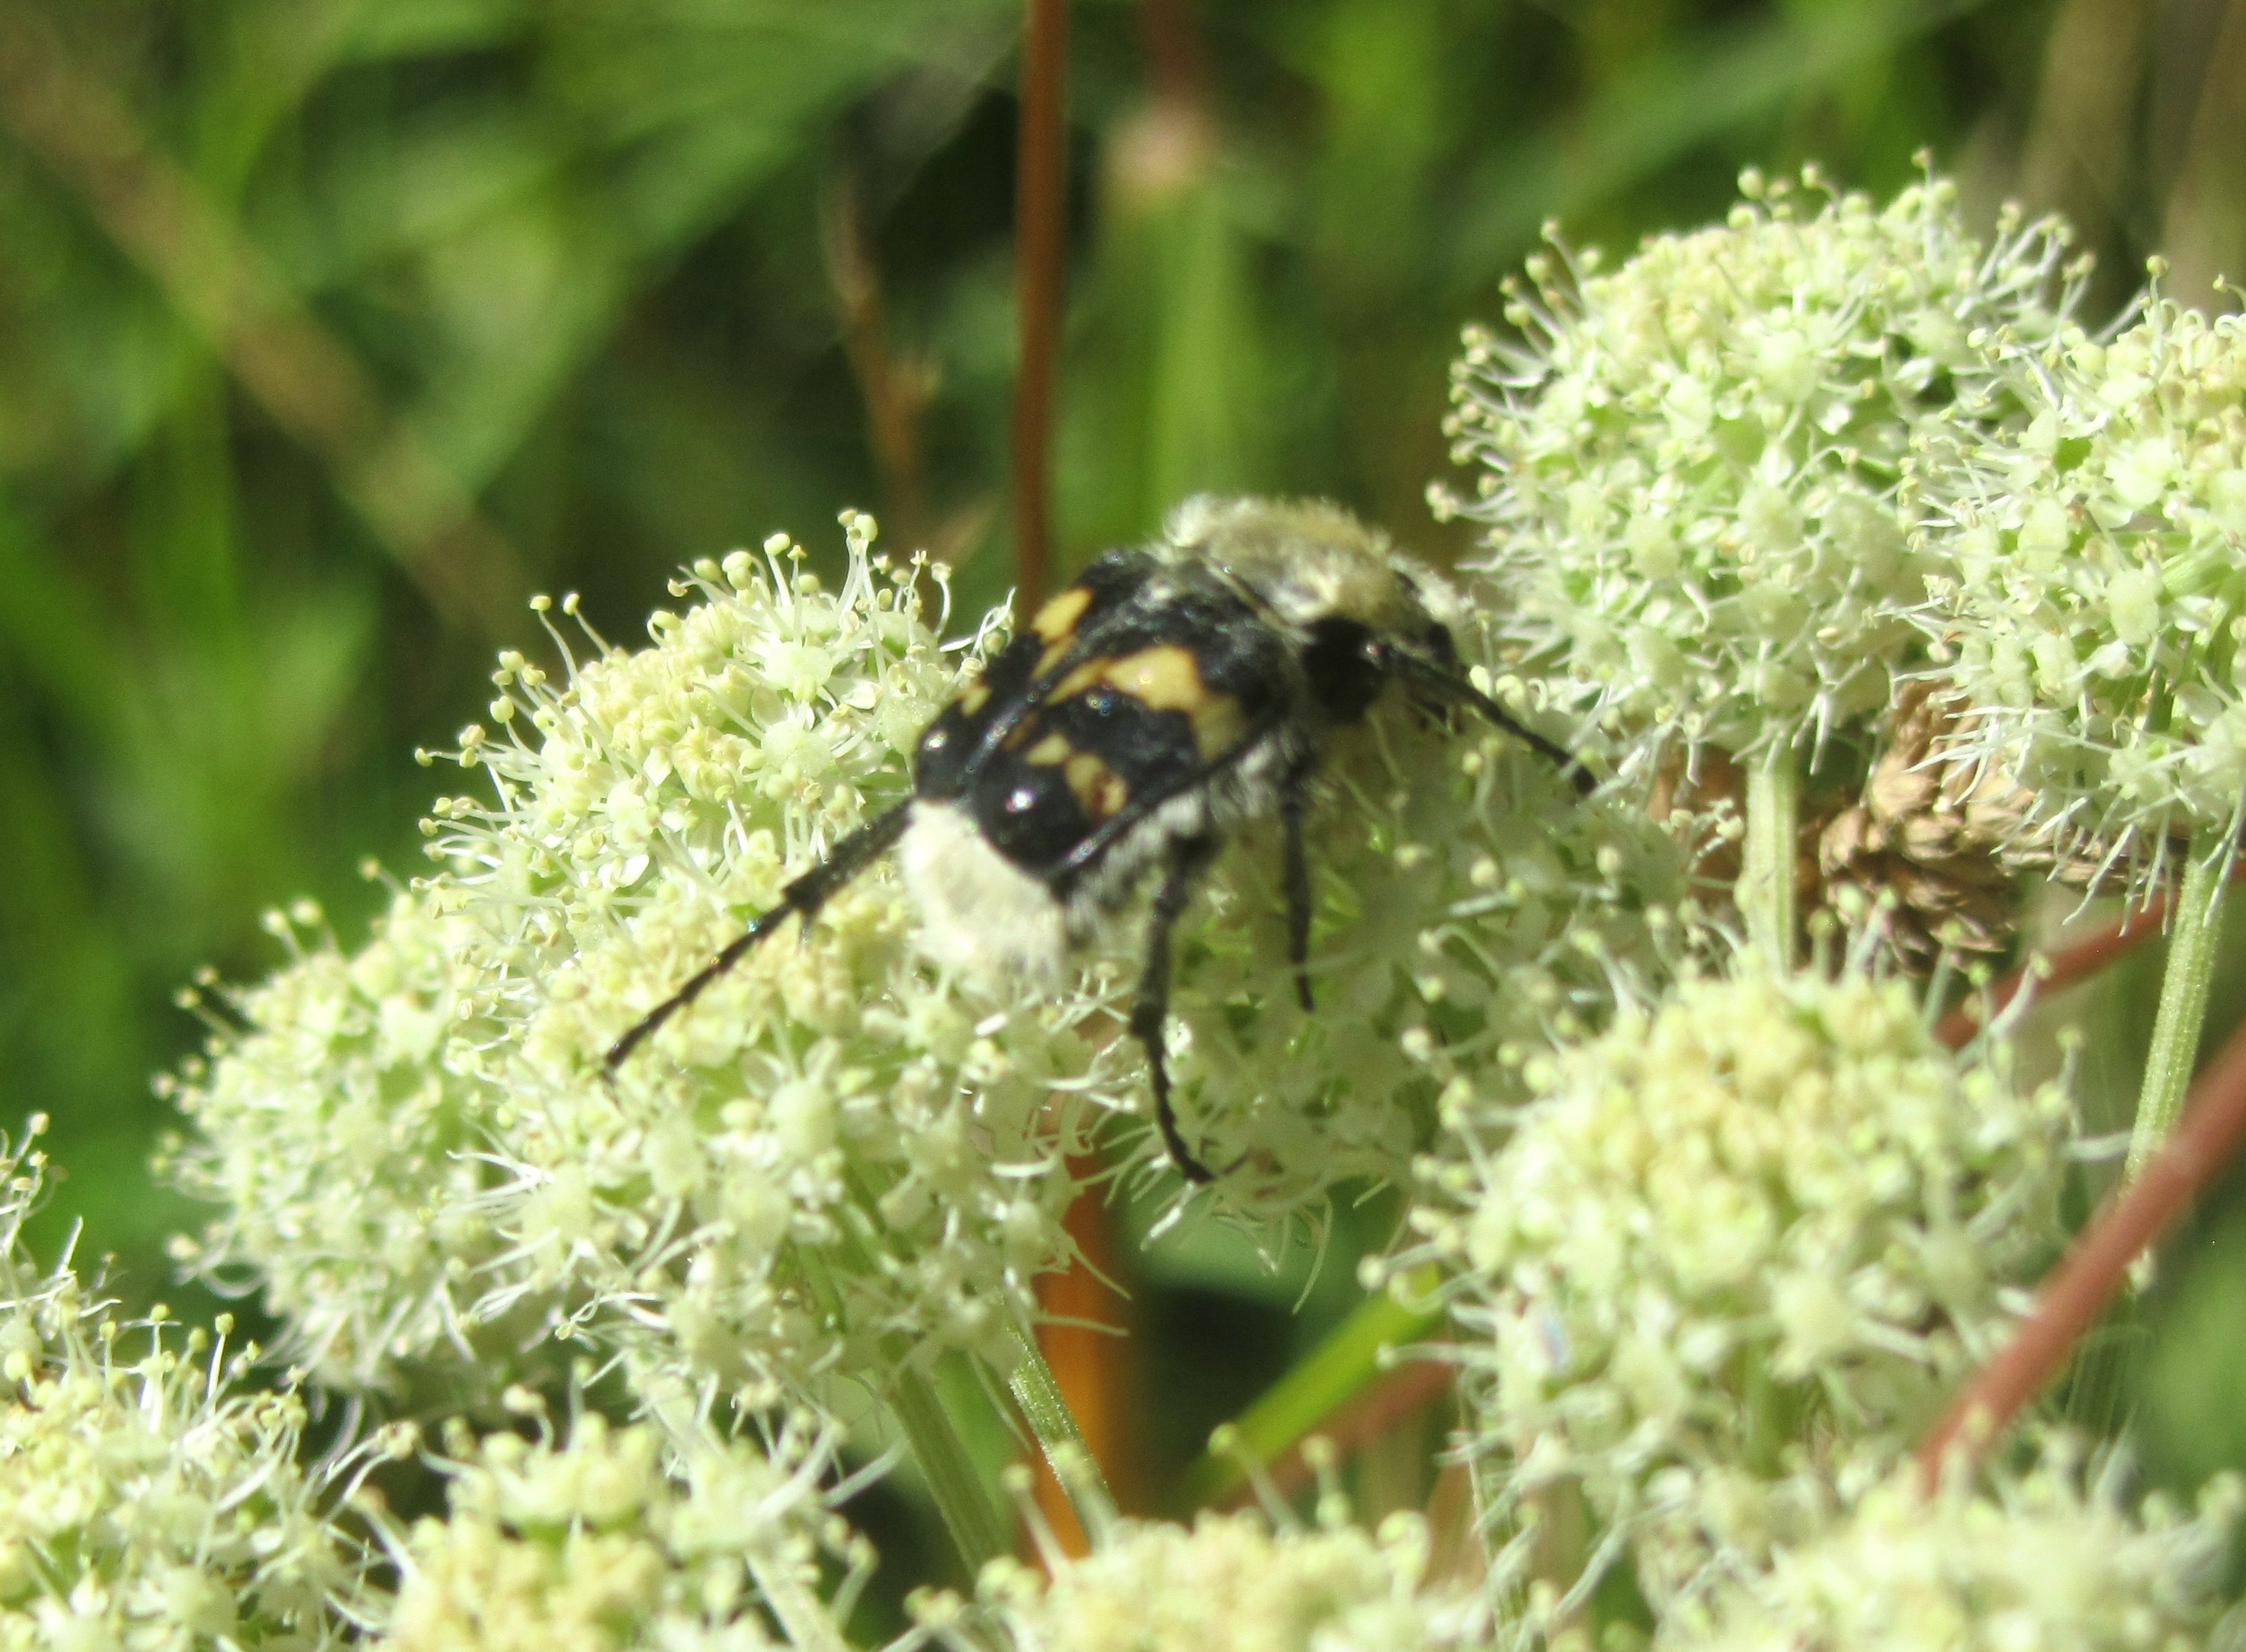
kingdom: Animalia
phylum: Arthropoda
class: Insecta
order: Coleoptera
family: Scarabaeidae
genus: Trichius
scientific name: Trichius fasciatus
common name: Bee beetle
